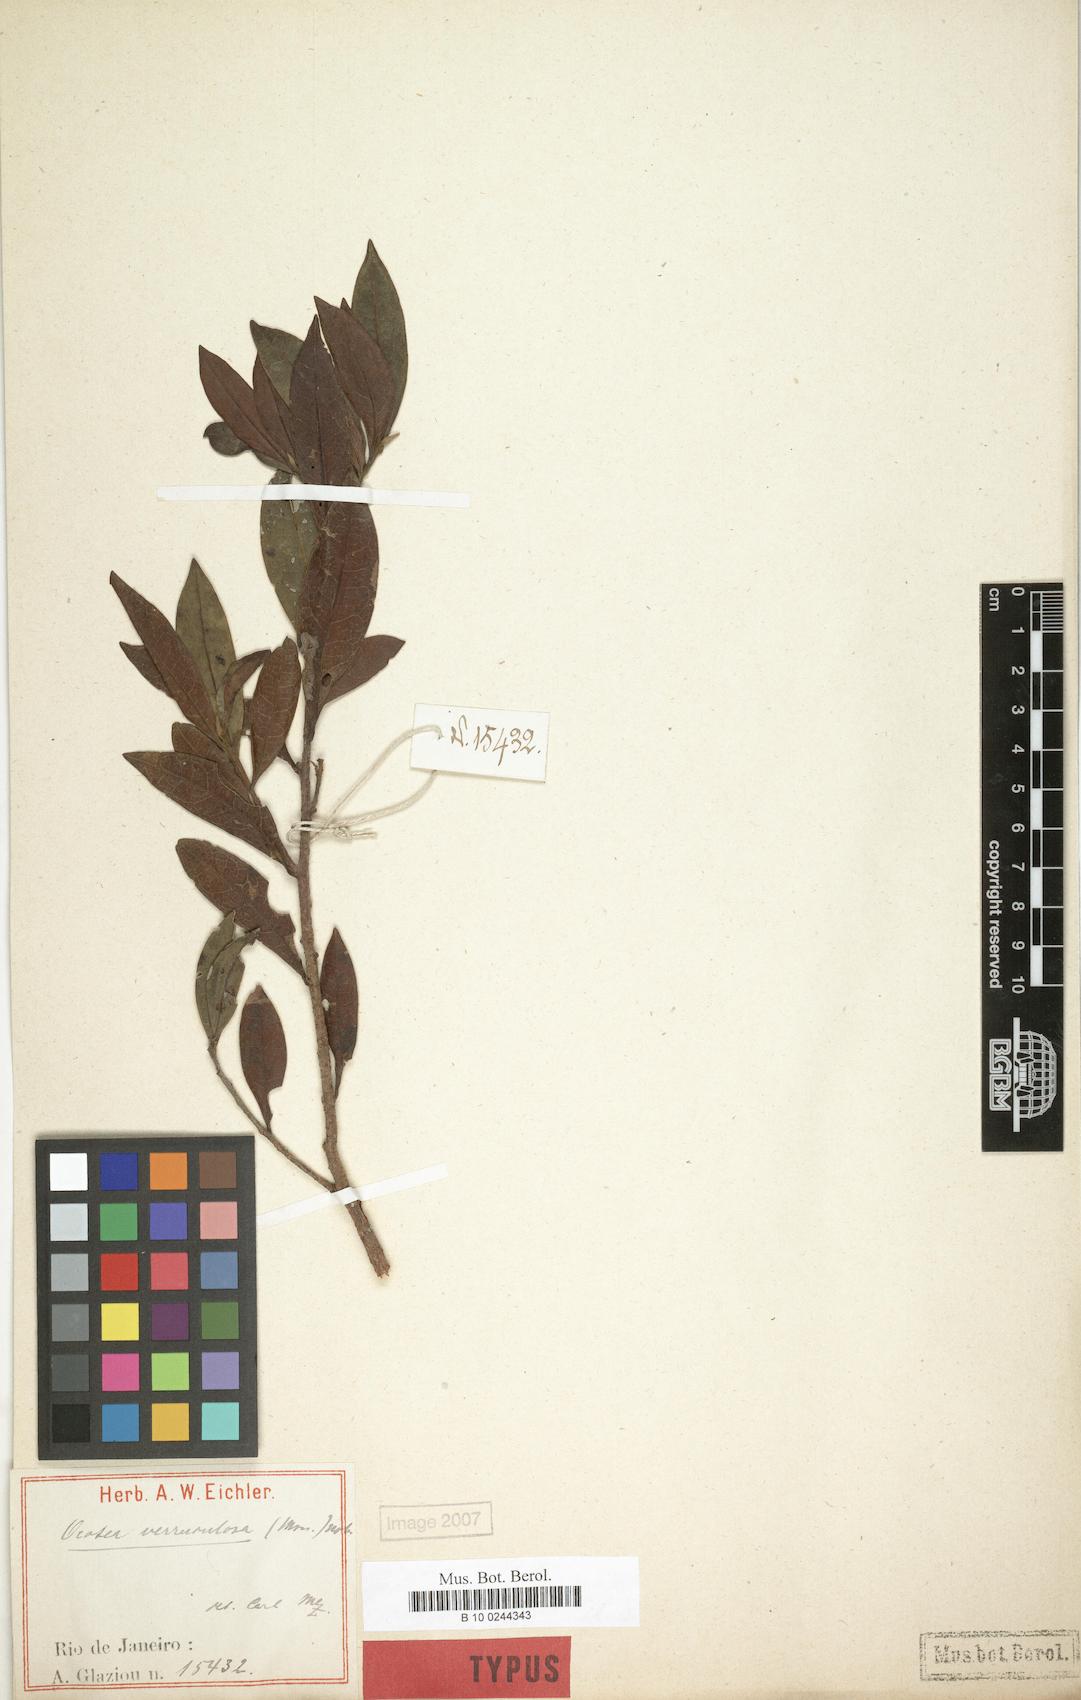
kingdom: Plantae
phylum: Tracheophyta
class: Magnoliopsida
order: Laurales
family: Lauraceae
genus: Ocotea
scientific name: Ocotea daphnifolia
